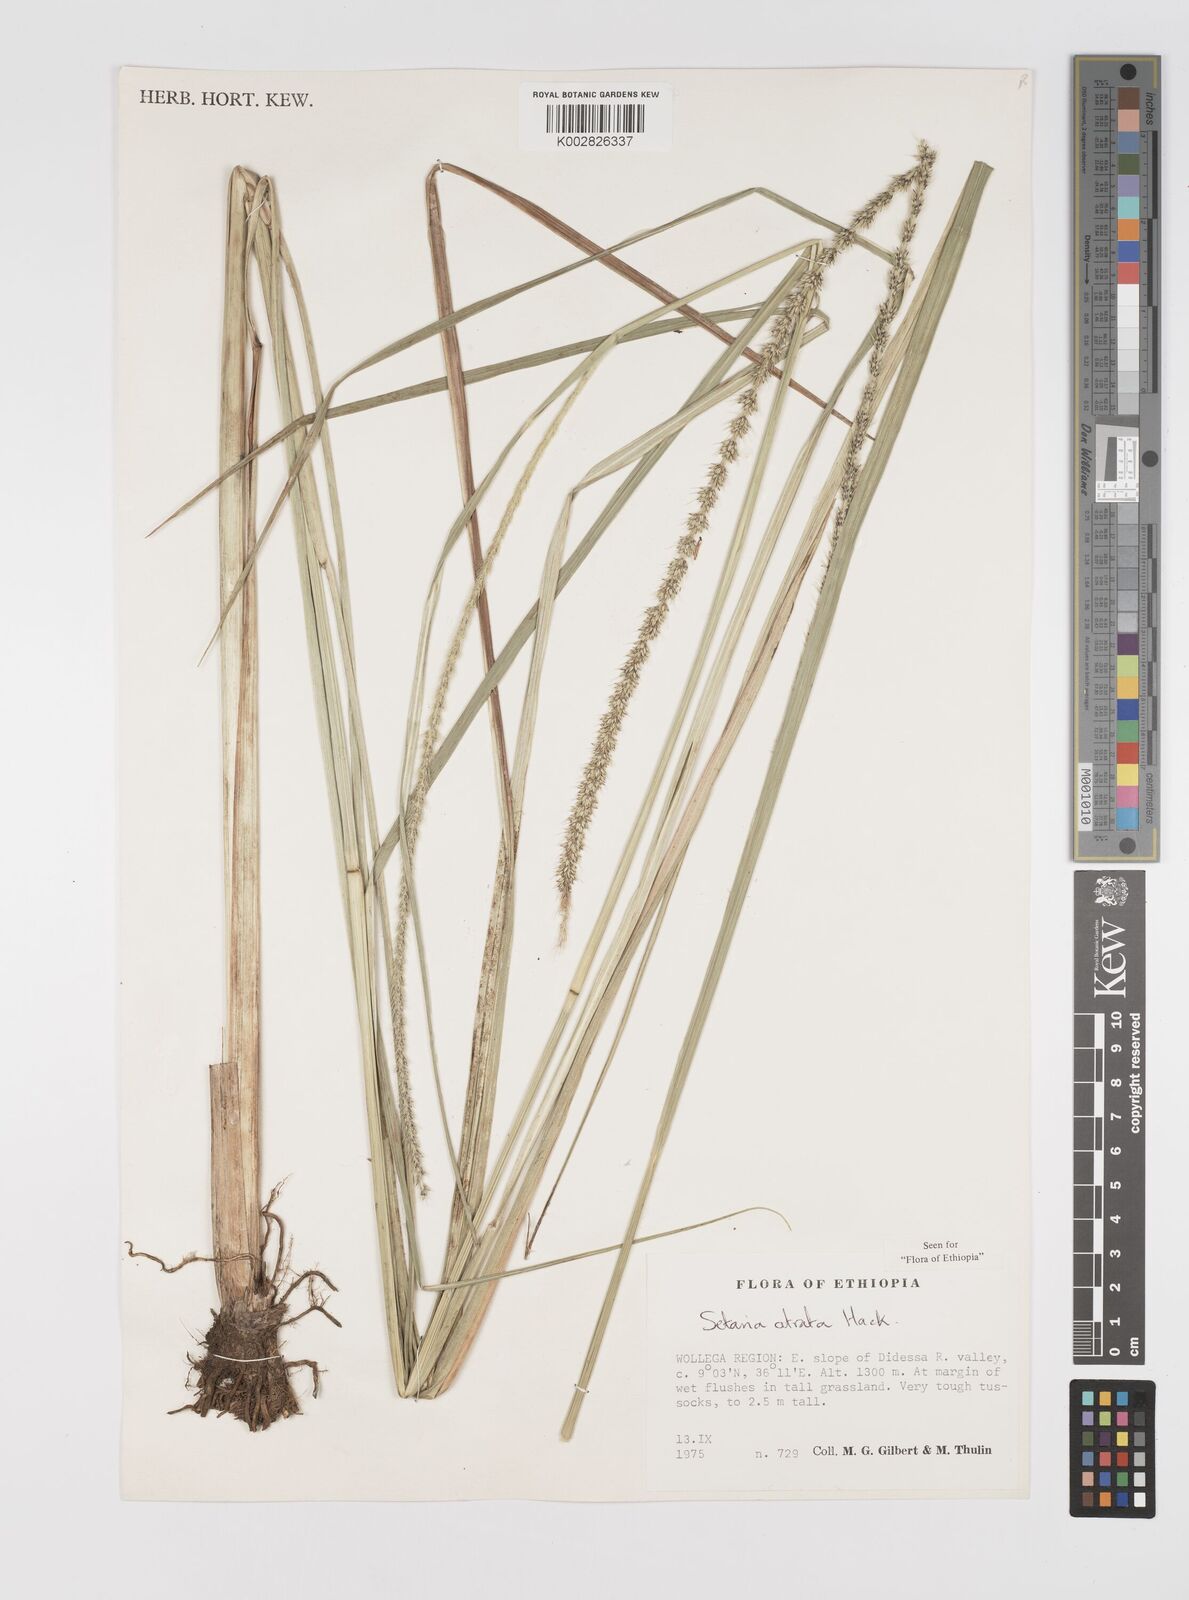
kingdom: Plantae
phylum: Tracheophyta
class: Liliopsida
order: Poales
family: Poaceae
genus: Setaria
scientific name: Setaria atrata
